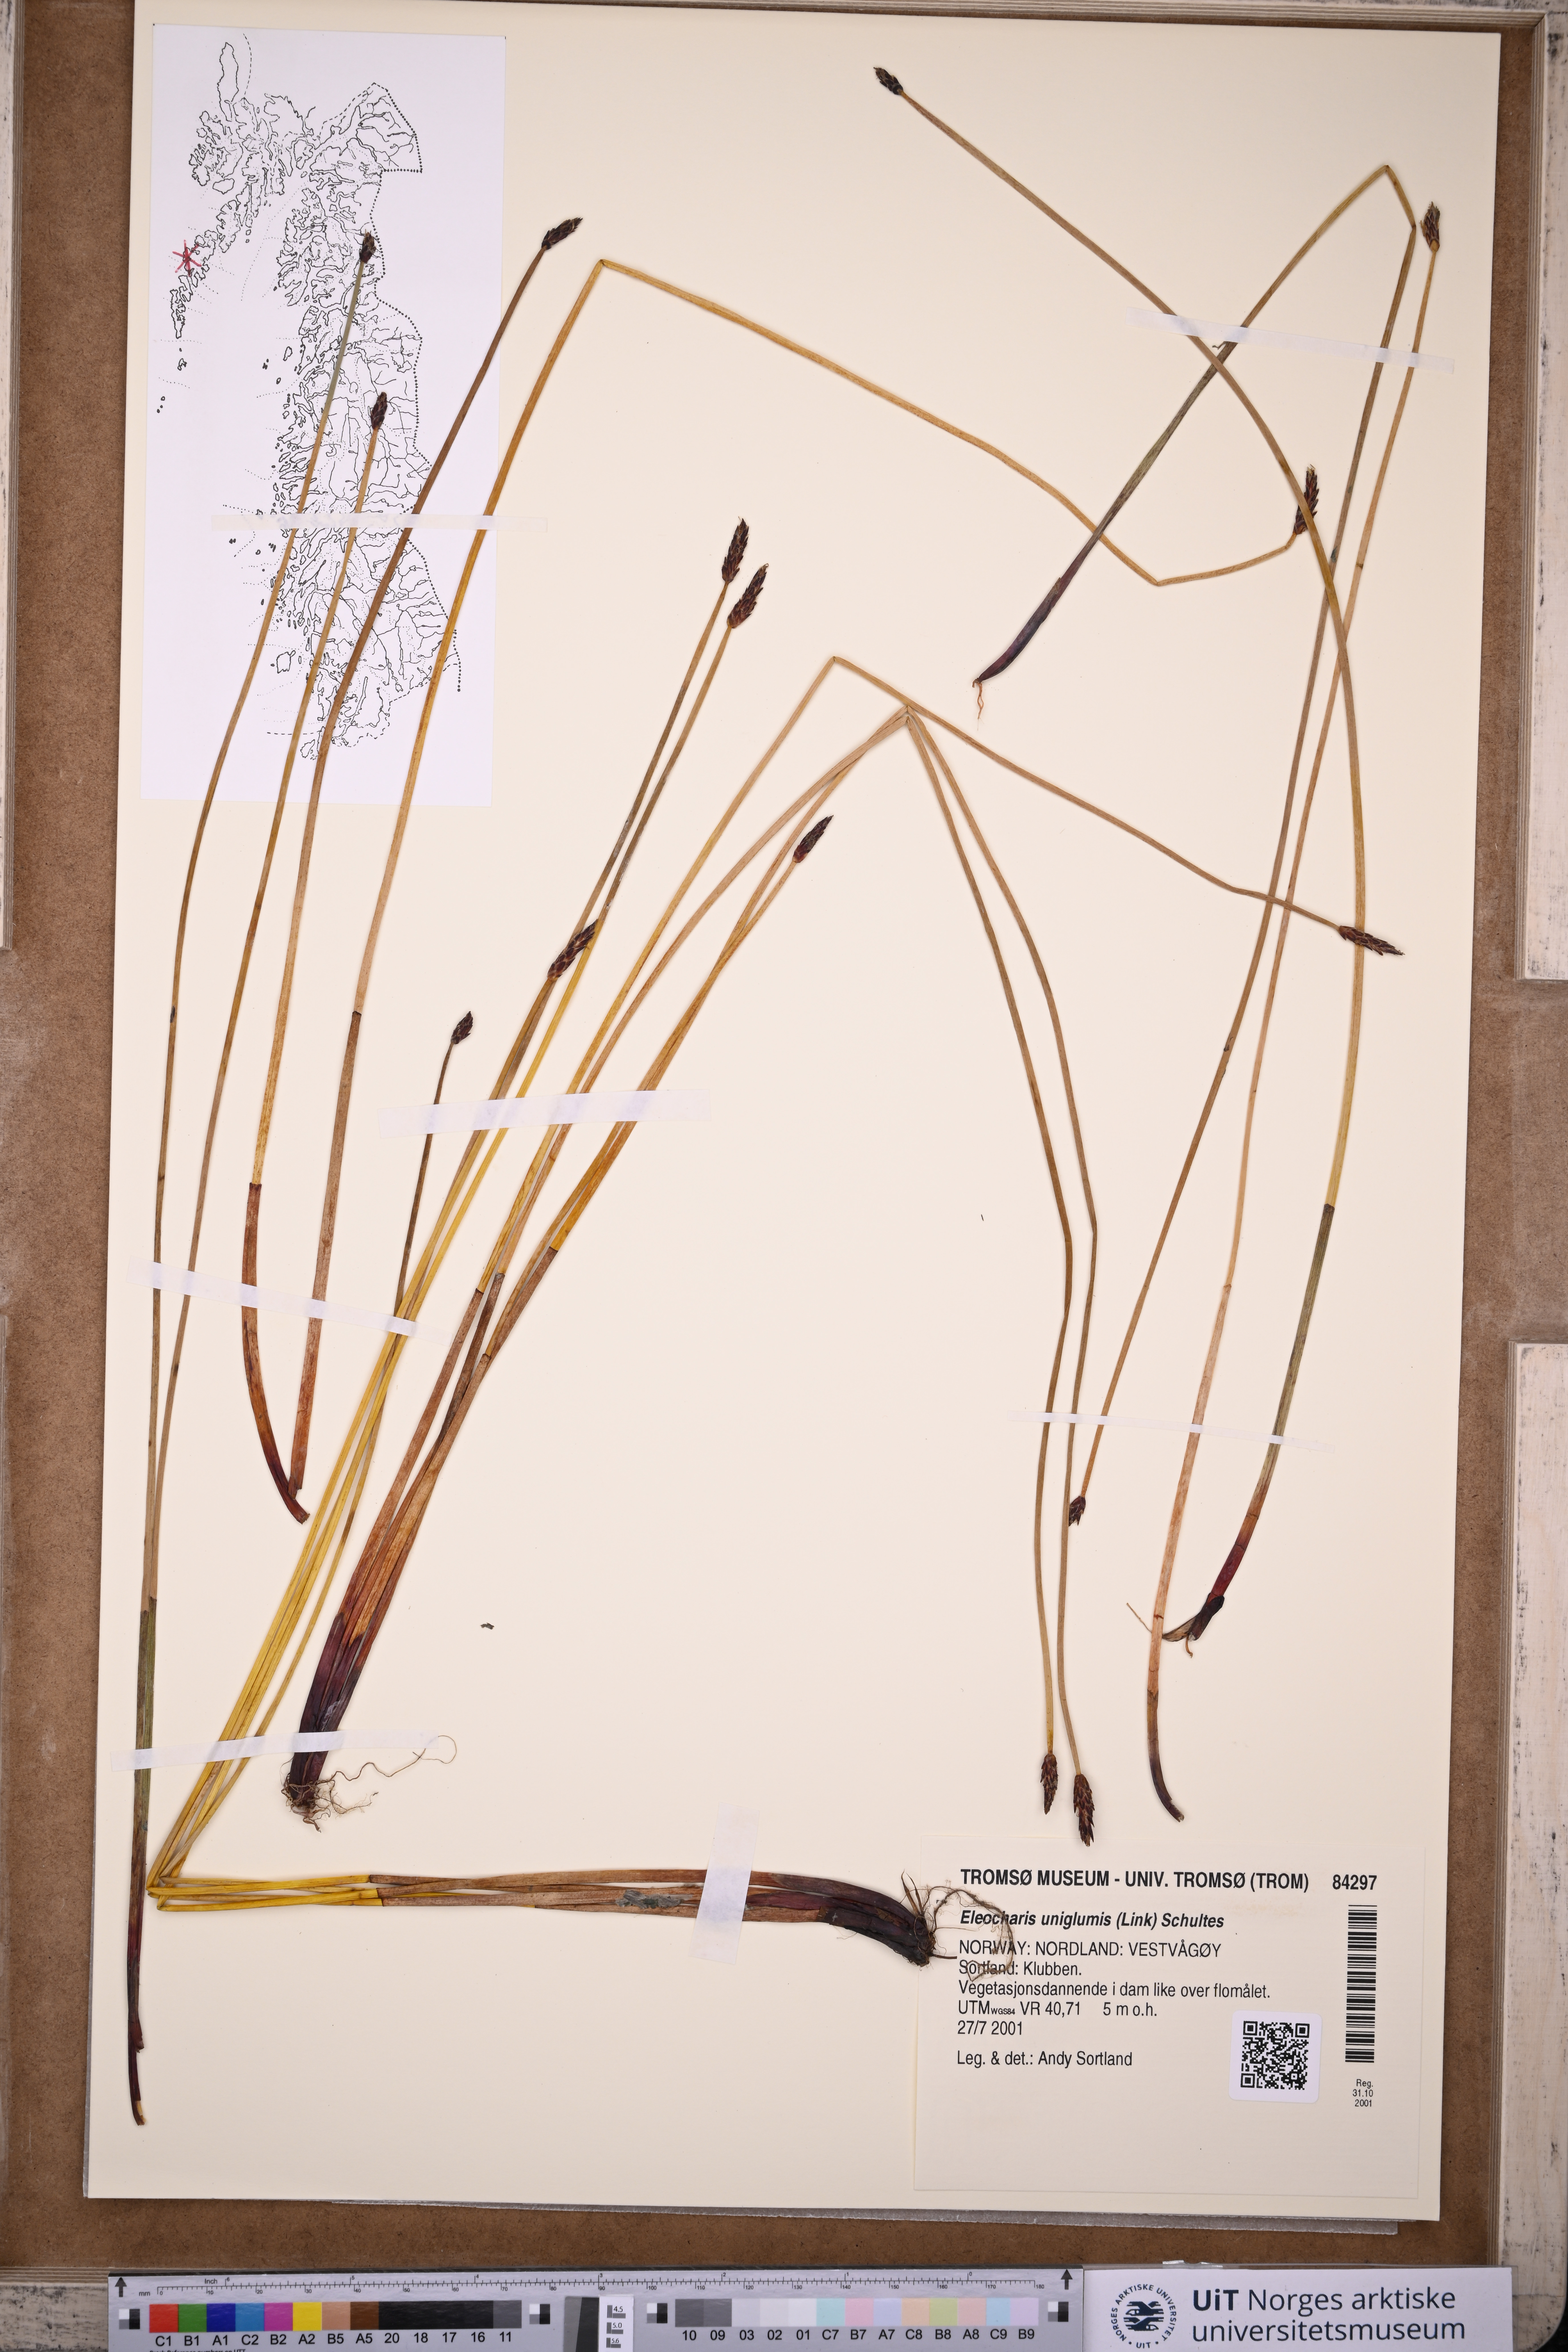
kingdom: Plantae
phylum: Tracheophyta
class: Liliopsida
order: Poales
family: Cyperaceae
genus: Eleocharis
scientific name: Eleocharis uniglumis
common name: Slender spike-rush
